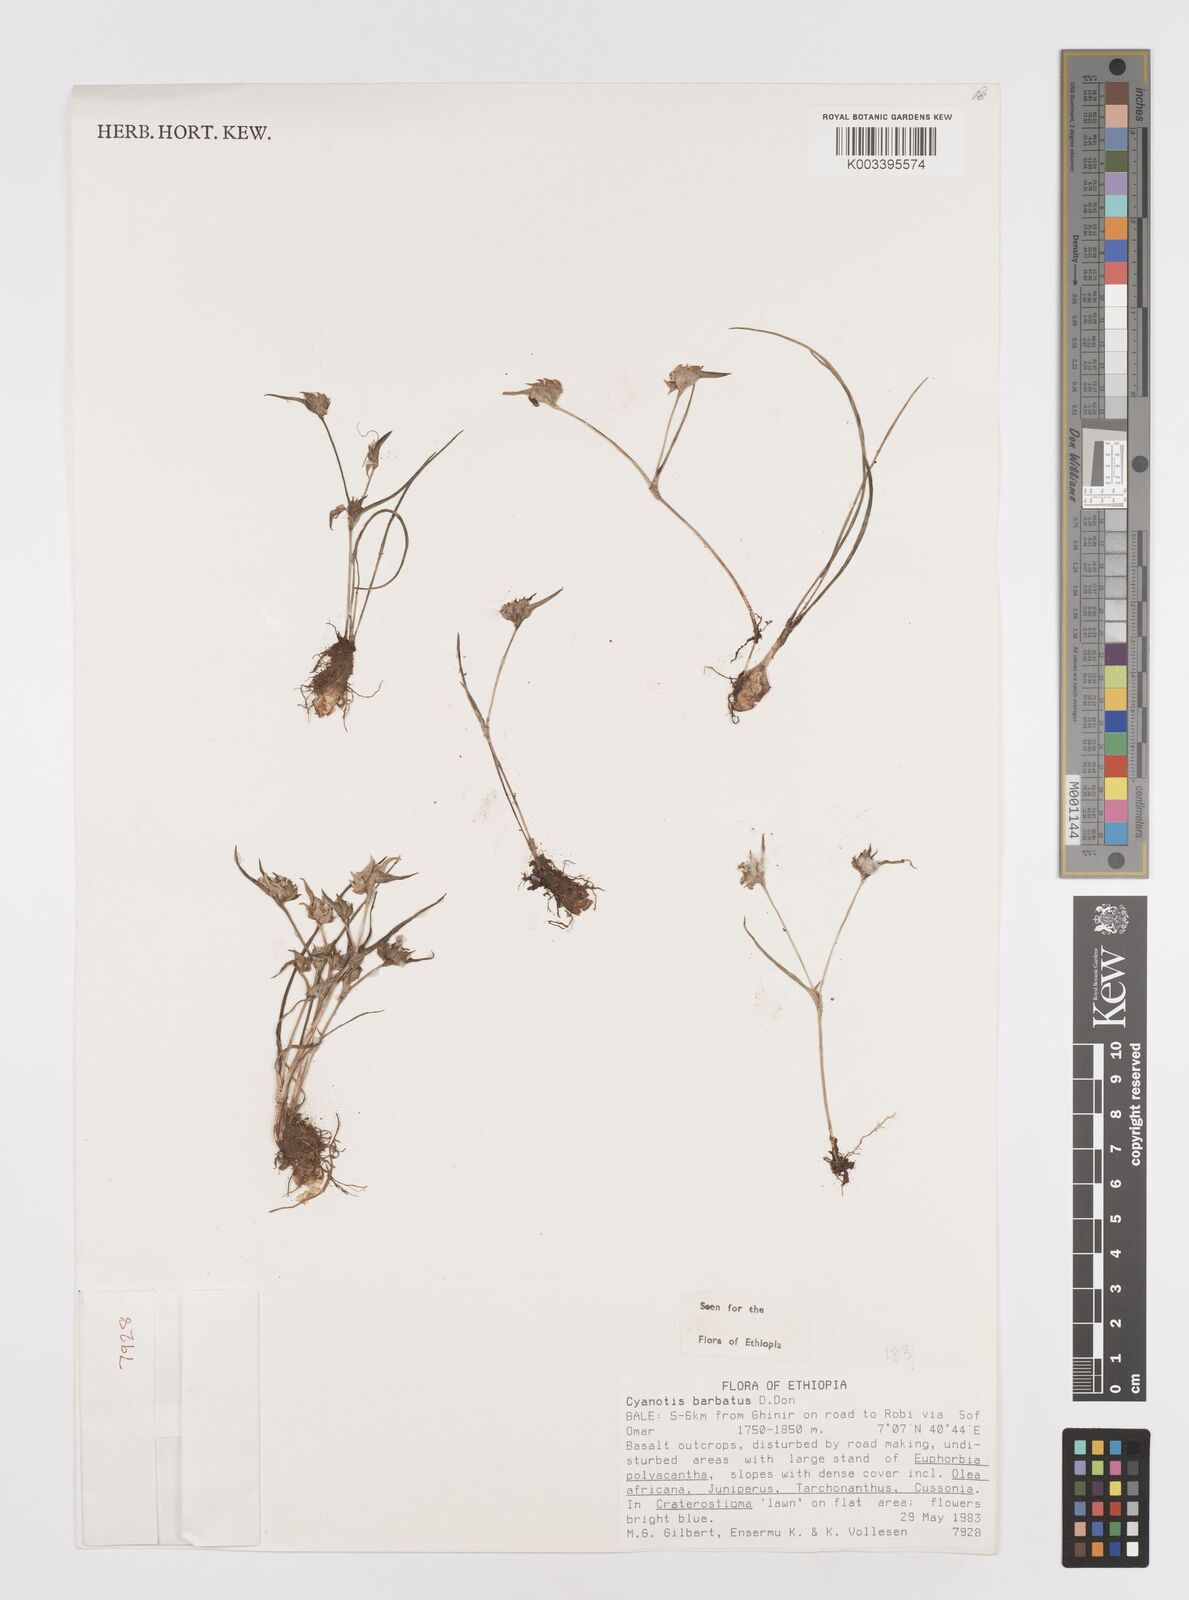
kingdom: Plantae
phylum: Tracheophyta
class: Liliopsida
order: Commelinales
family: Commelinaceae
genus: Cyanotis
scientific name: Cyanotis vaga
